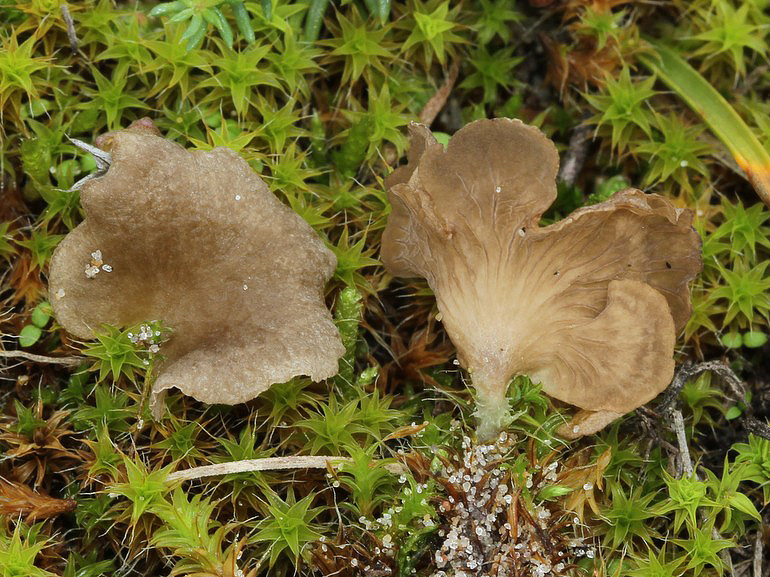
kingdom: Fungi
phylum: Basidiomycota
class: Agaricomycetes
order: Agaricales
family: Hygrophoraceae
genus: Arrhenia
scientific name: Arrhenia spathulata
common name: skæv fontænehat
